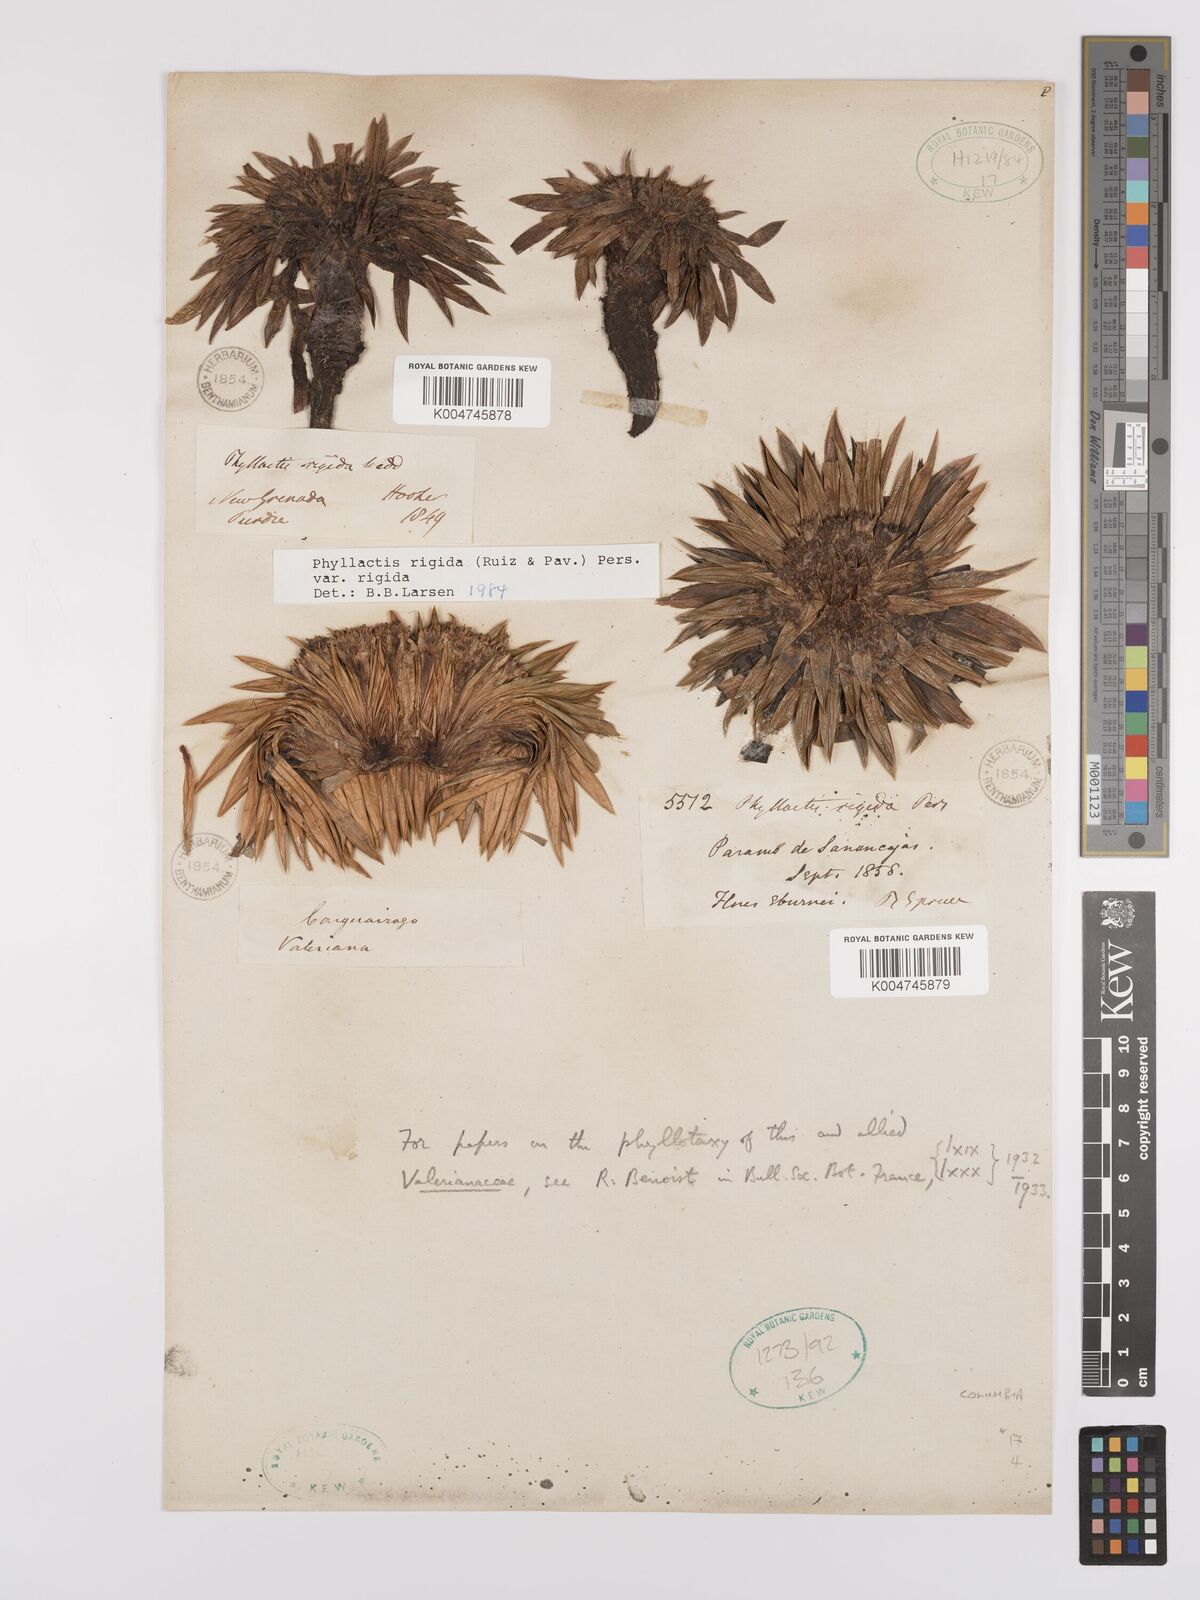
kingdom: Plantae
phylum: Tracheophyta
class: Magnoliopsida
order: Dipsacales
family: Caprifoliaceae
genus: Valeriana
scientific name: Valeriana rigida
